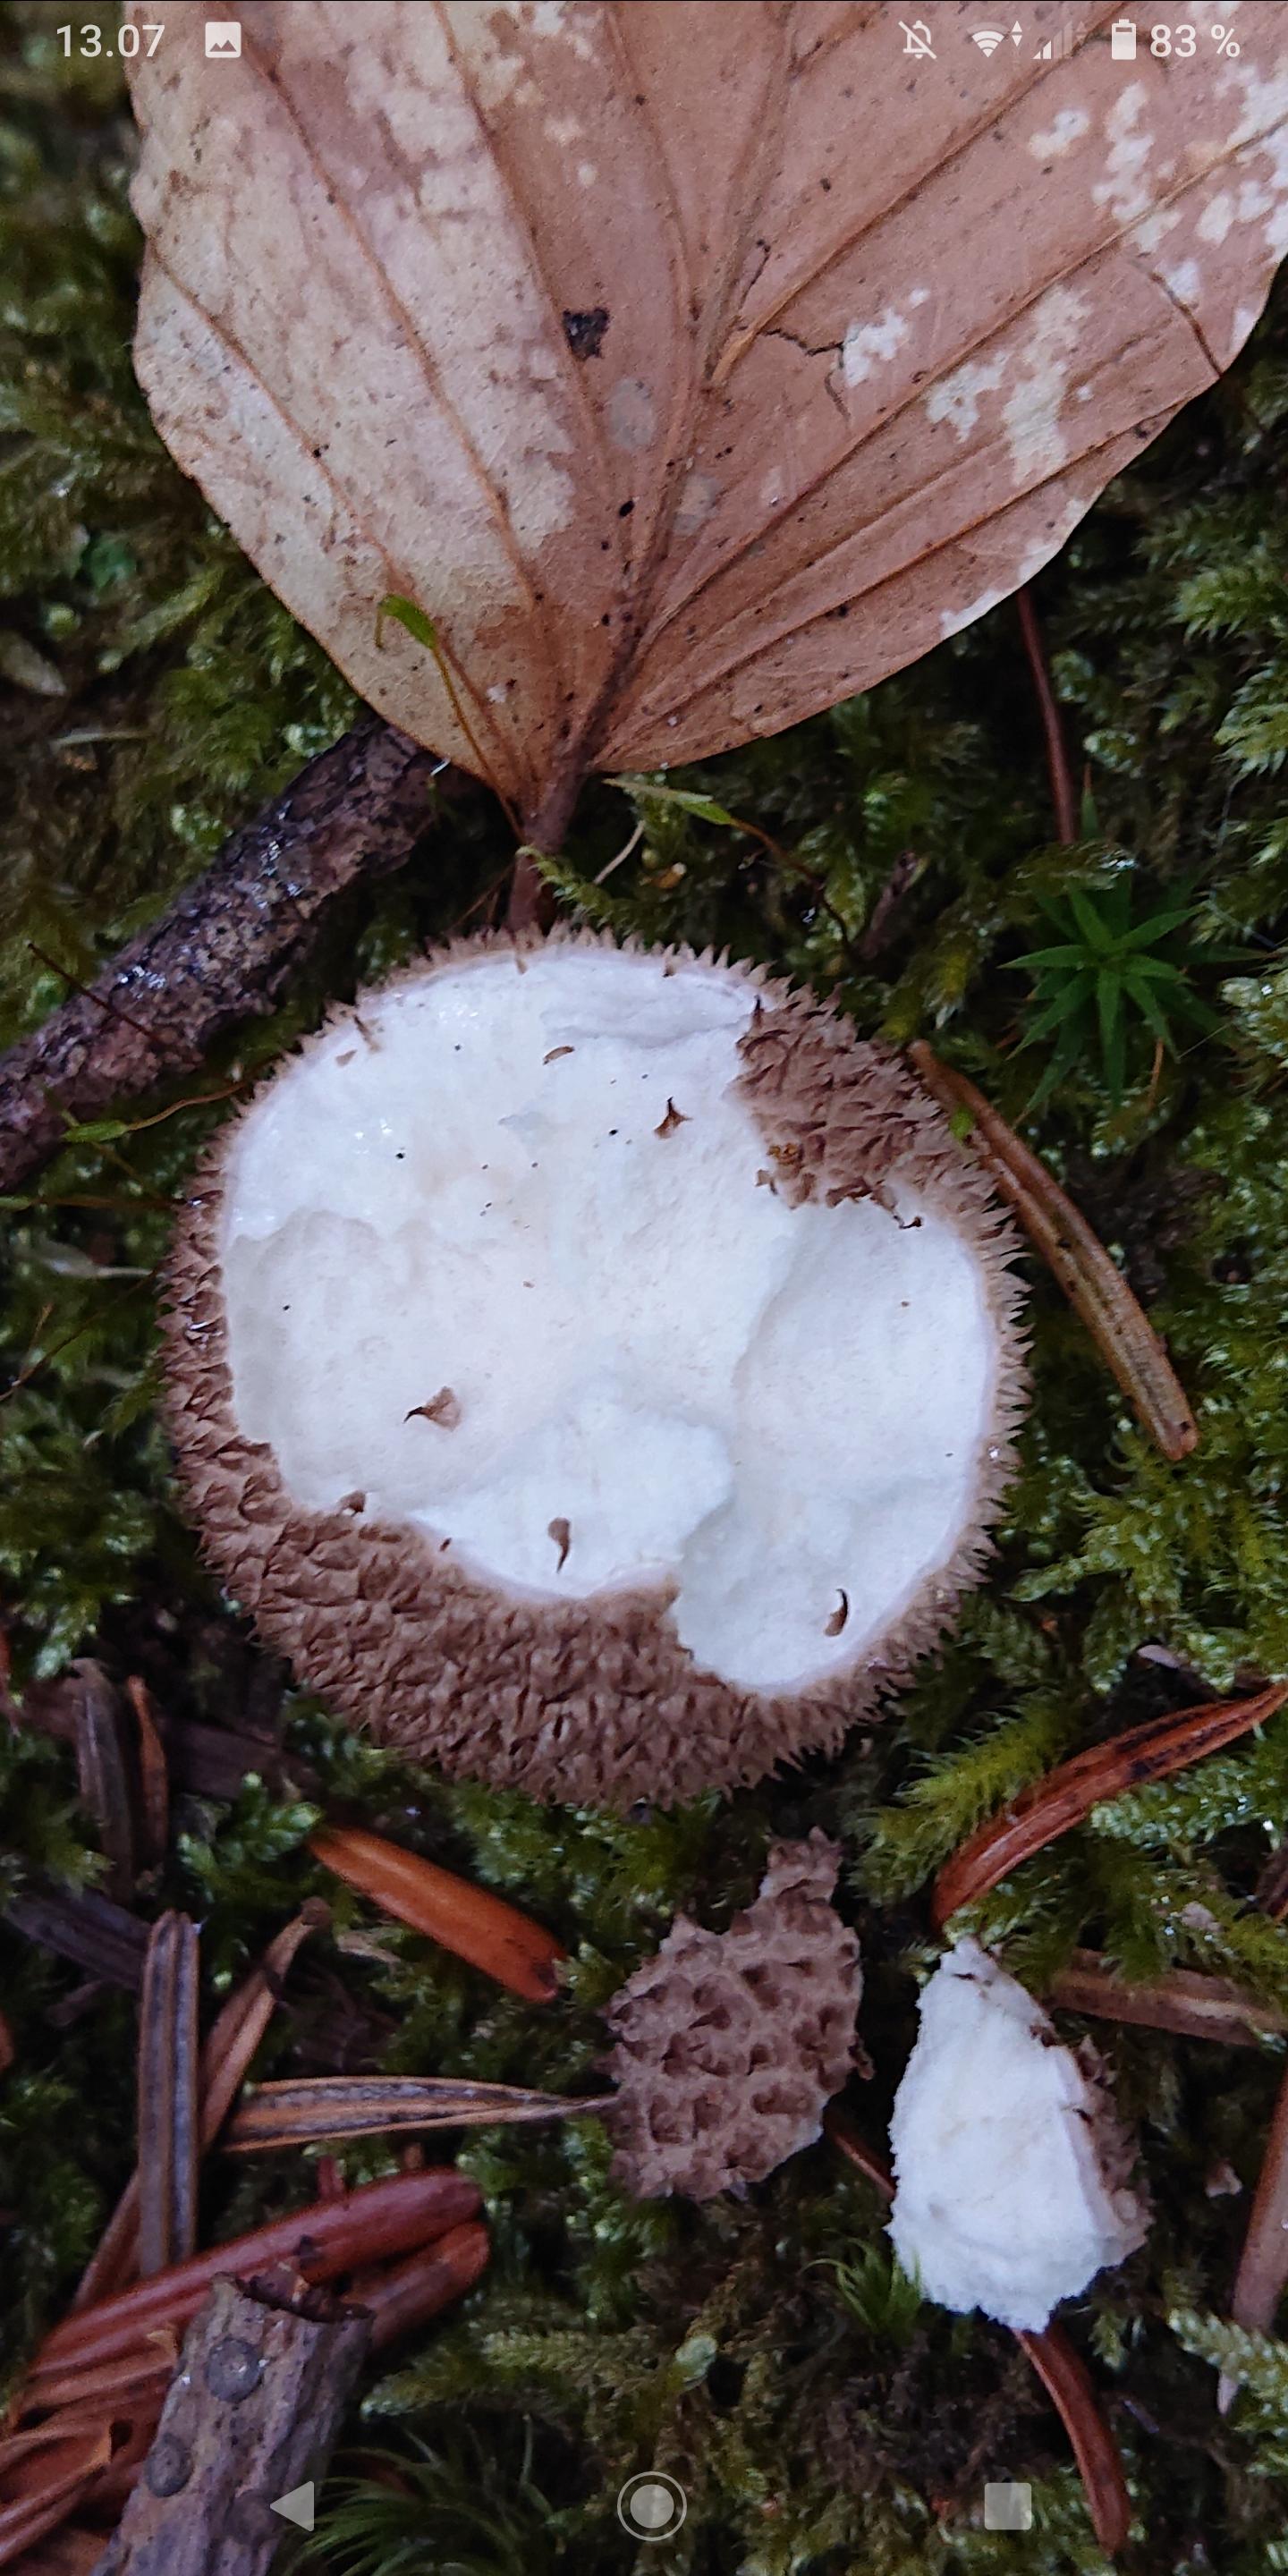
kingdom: Fungi
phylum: Basidiomycota
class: Agaricomycetes
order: Agaricales
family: Lycoperdaceae
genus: Lycoperdon
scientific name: Lycoperdon nigrescens
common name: sortagtig støvbold
